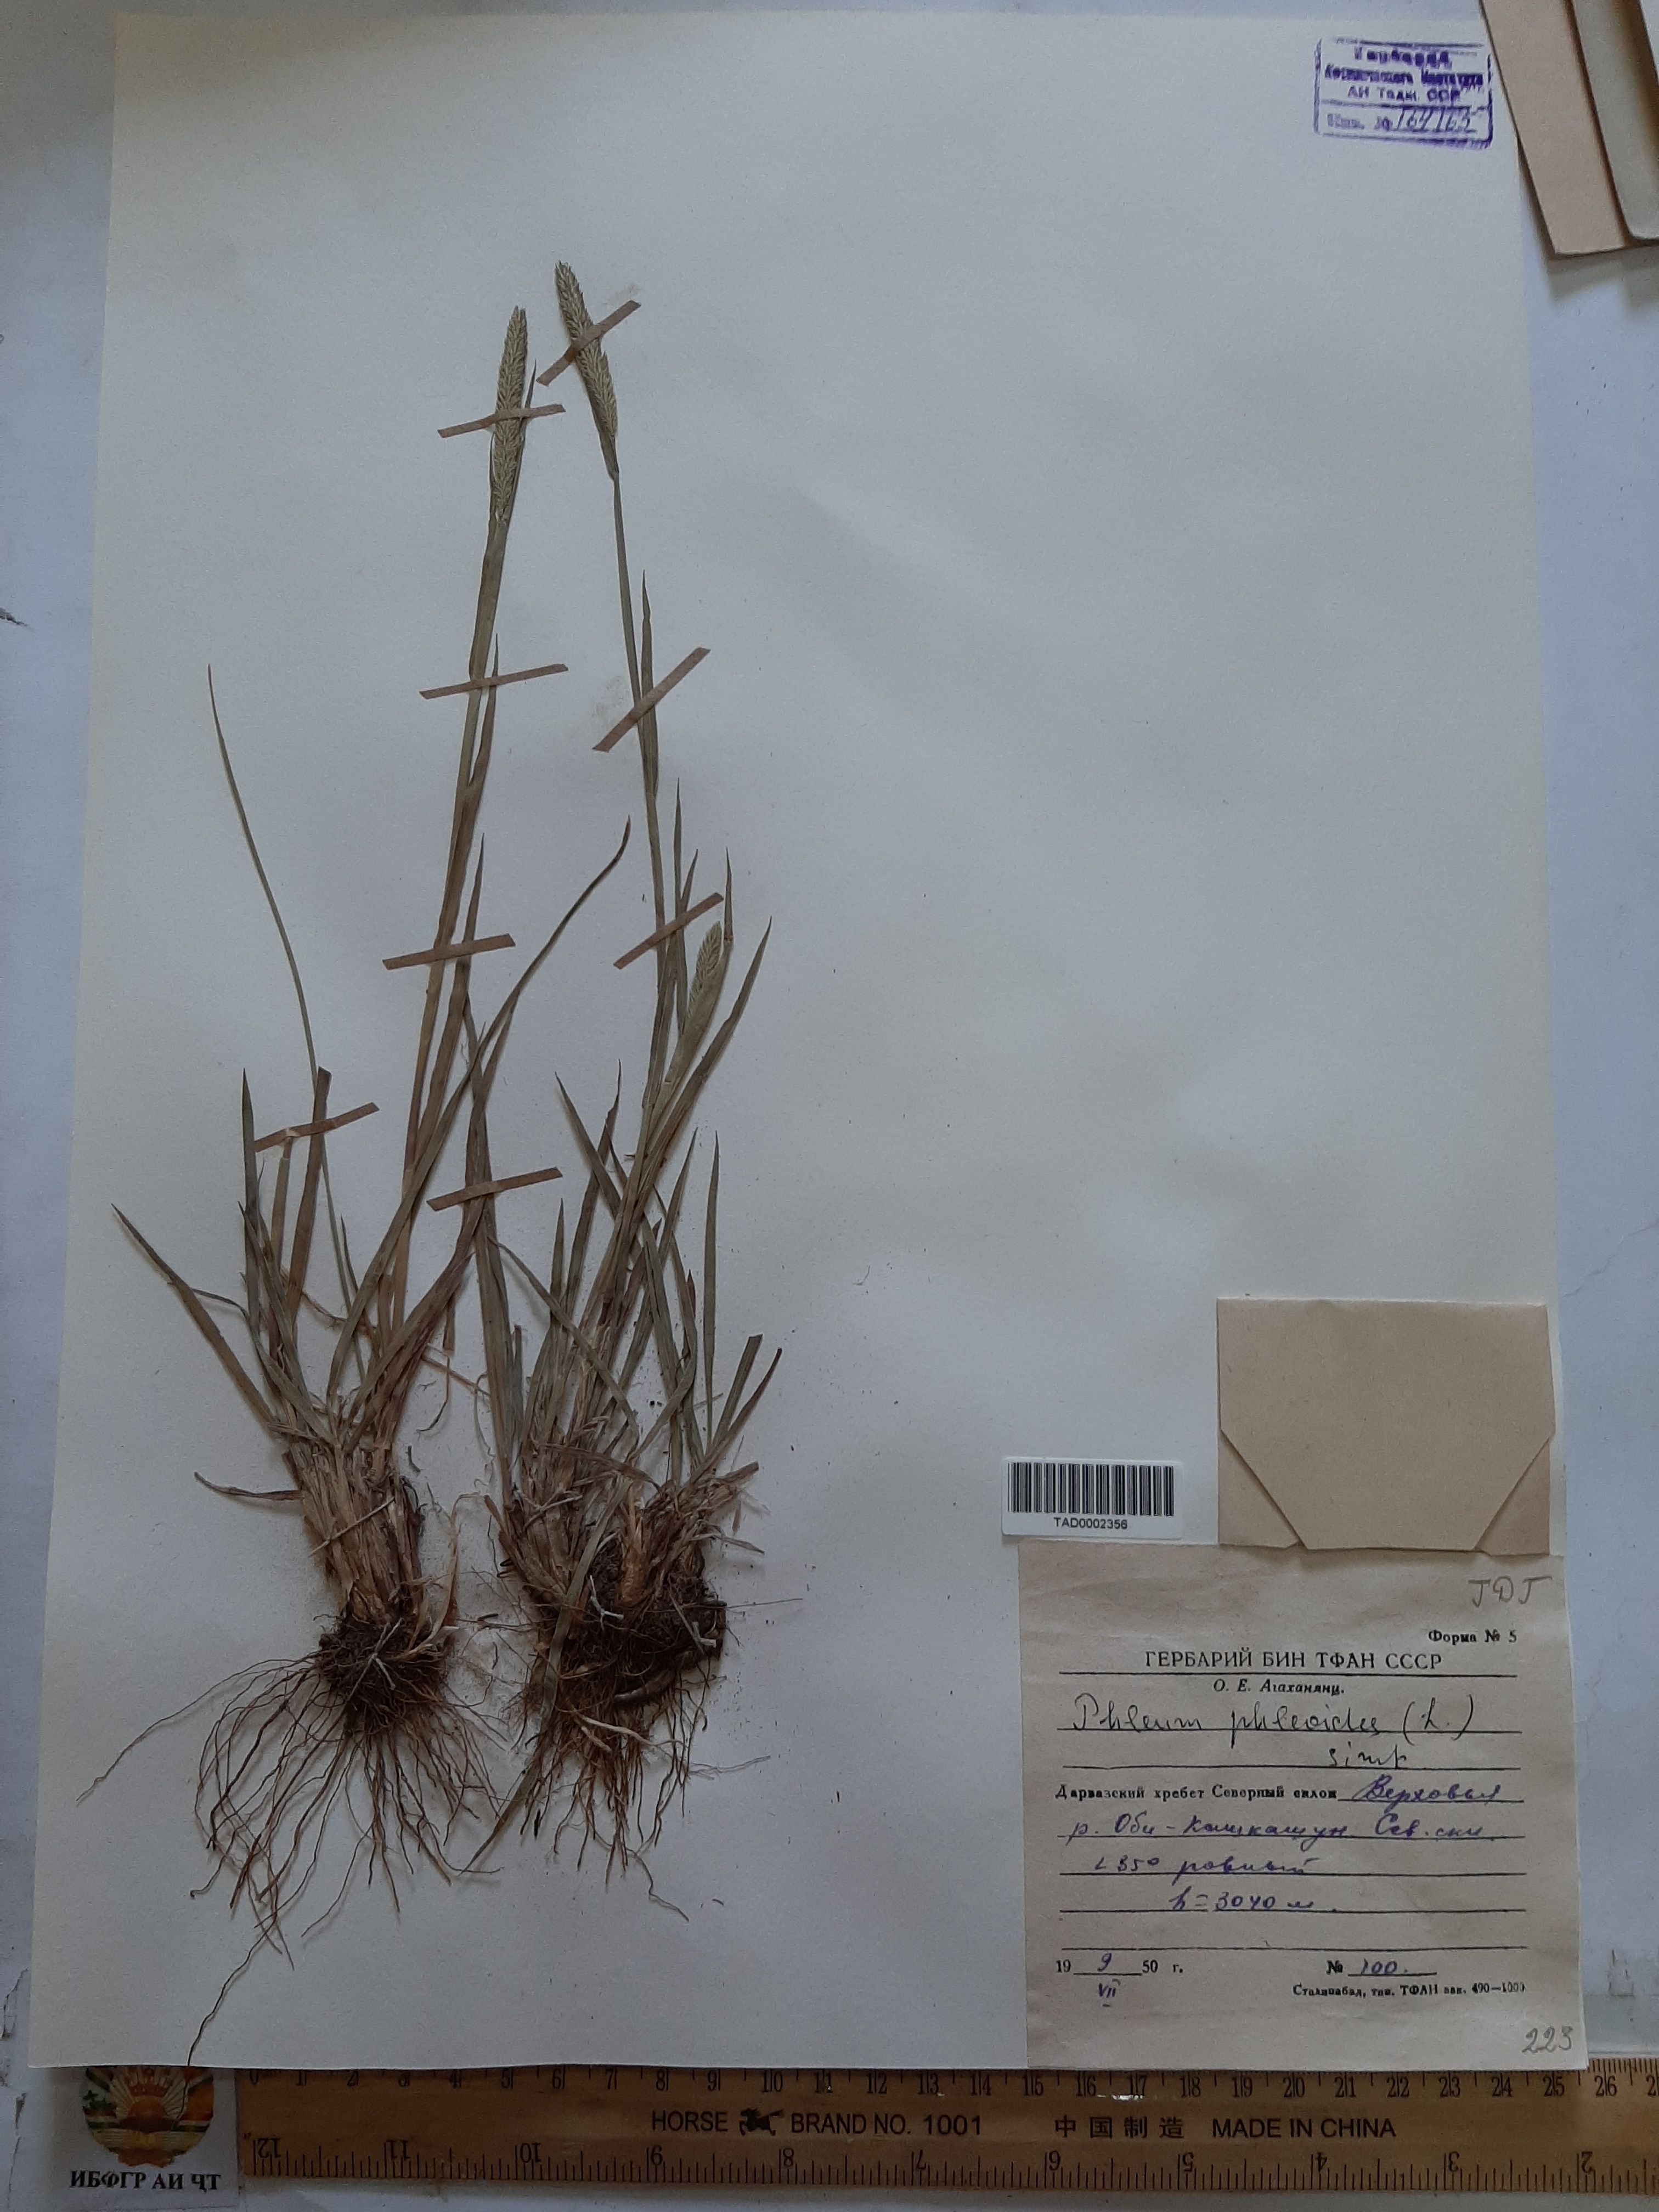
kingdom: Plantae
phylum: Tracheophyta
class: Liliopsida
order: Poales
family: Poaceae
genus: Phleum
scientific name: Phleum phleoides
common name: Purple-stem cat's-tail
